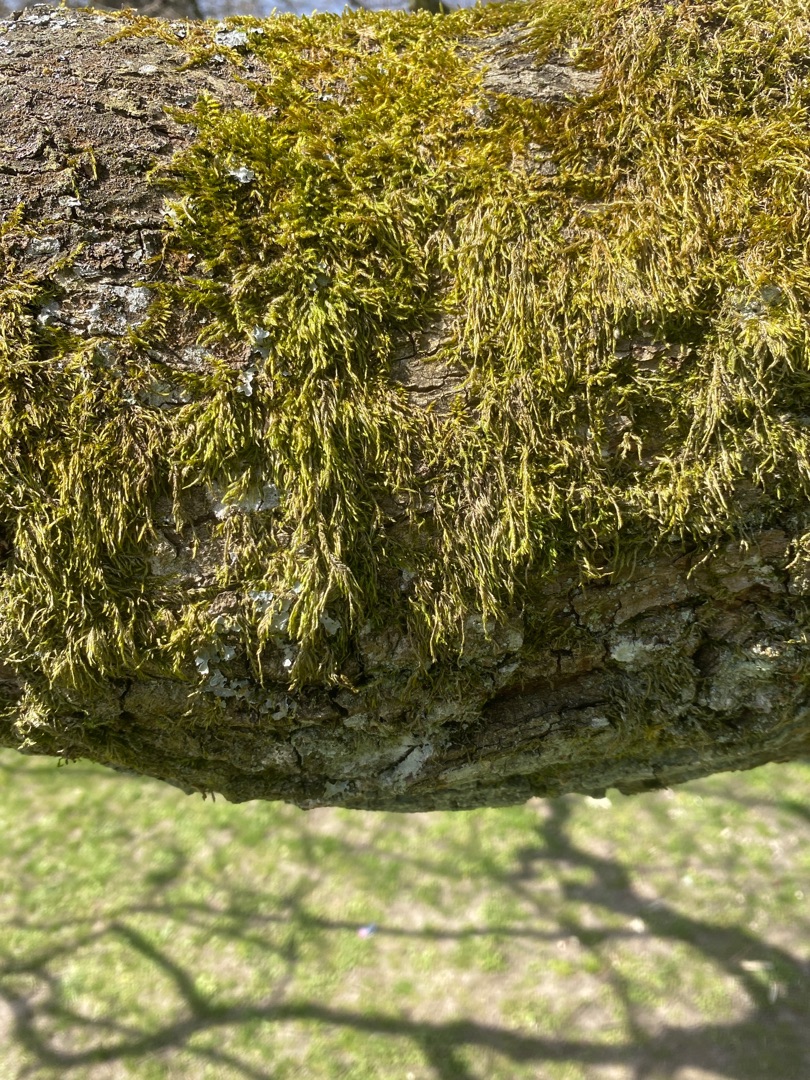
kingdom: Plantae
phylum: Bryophyta
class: Bryopsida
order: Hypnales
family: Hypnaceae
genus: Hypnum
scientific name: Hypnum
